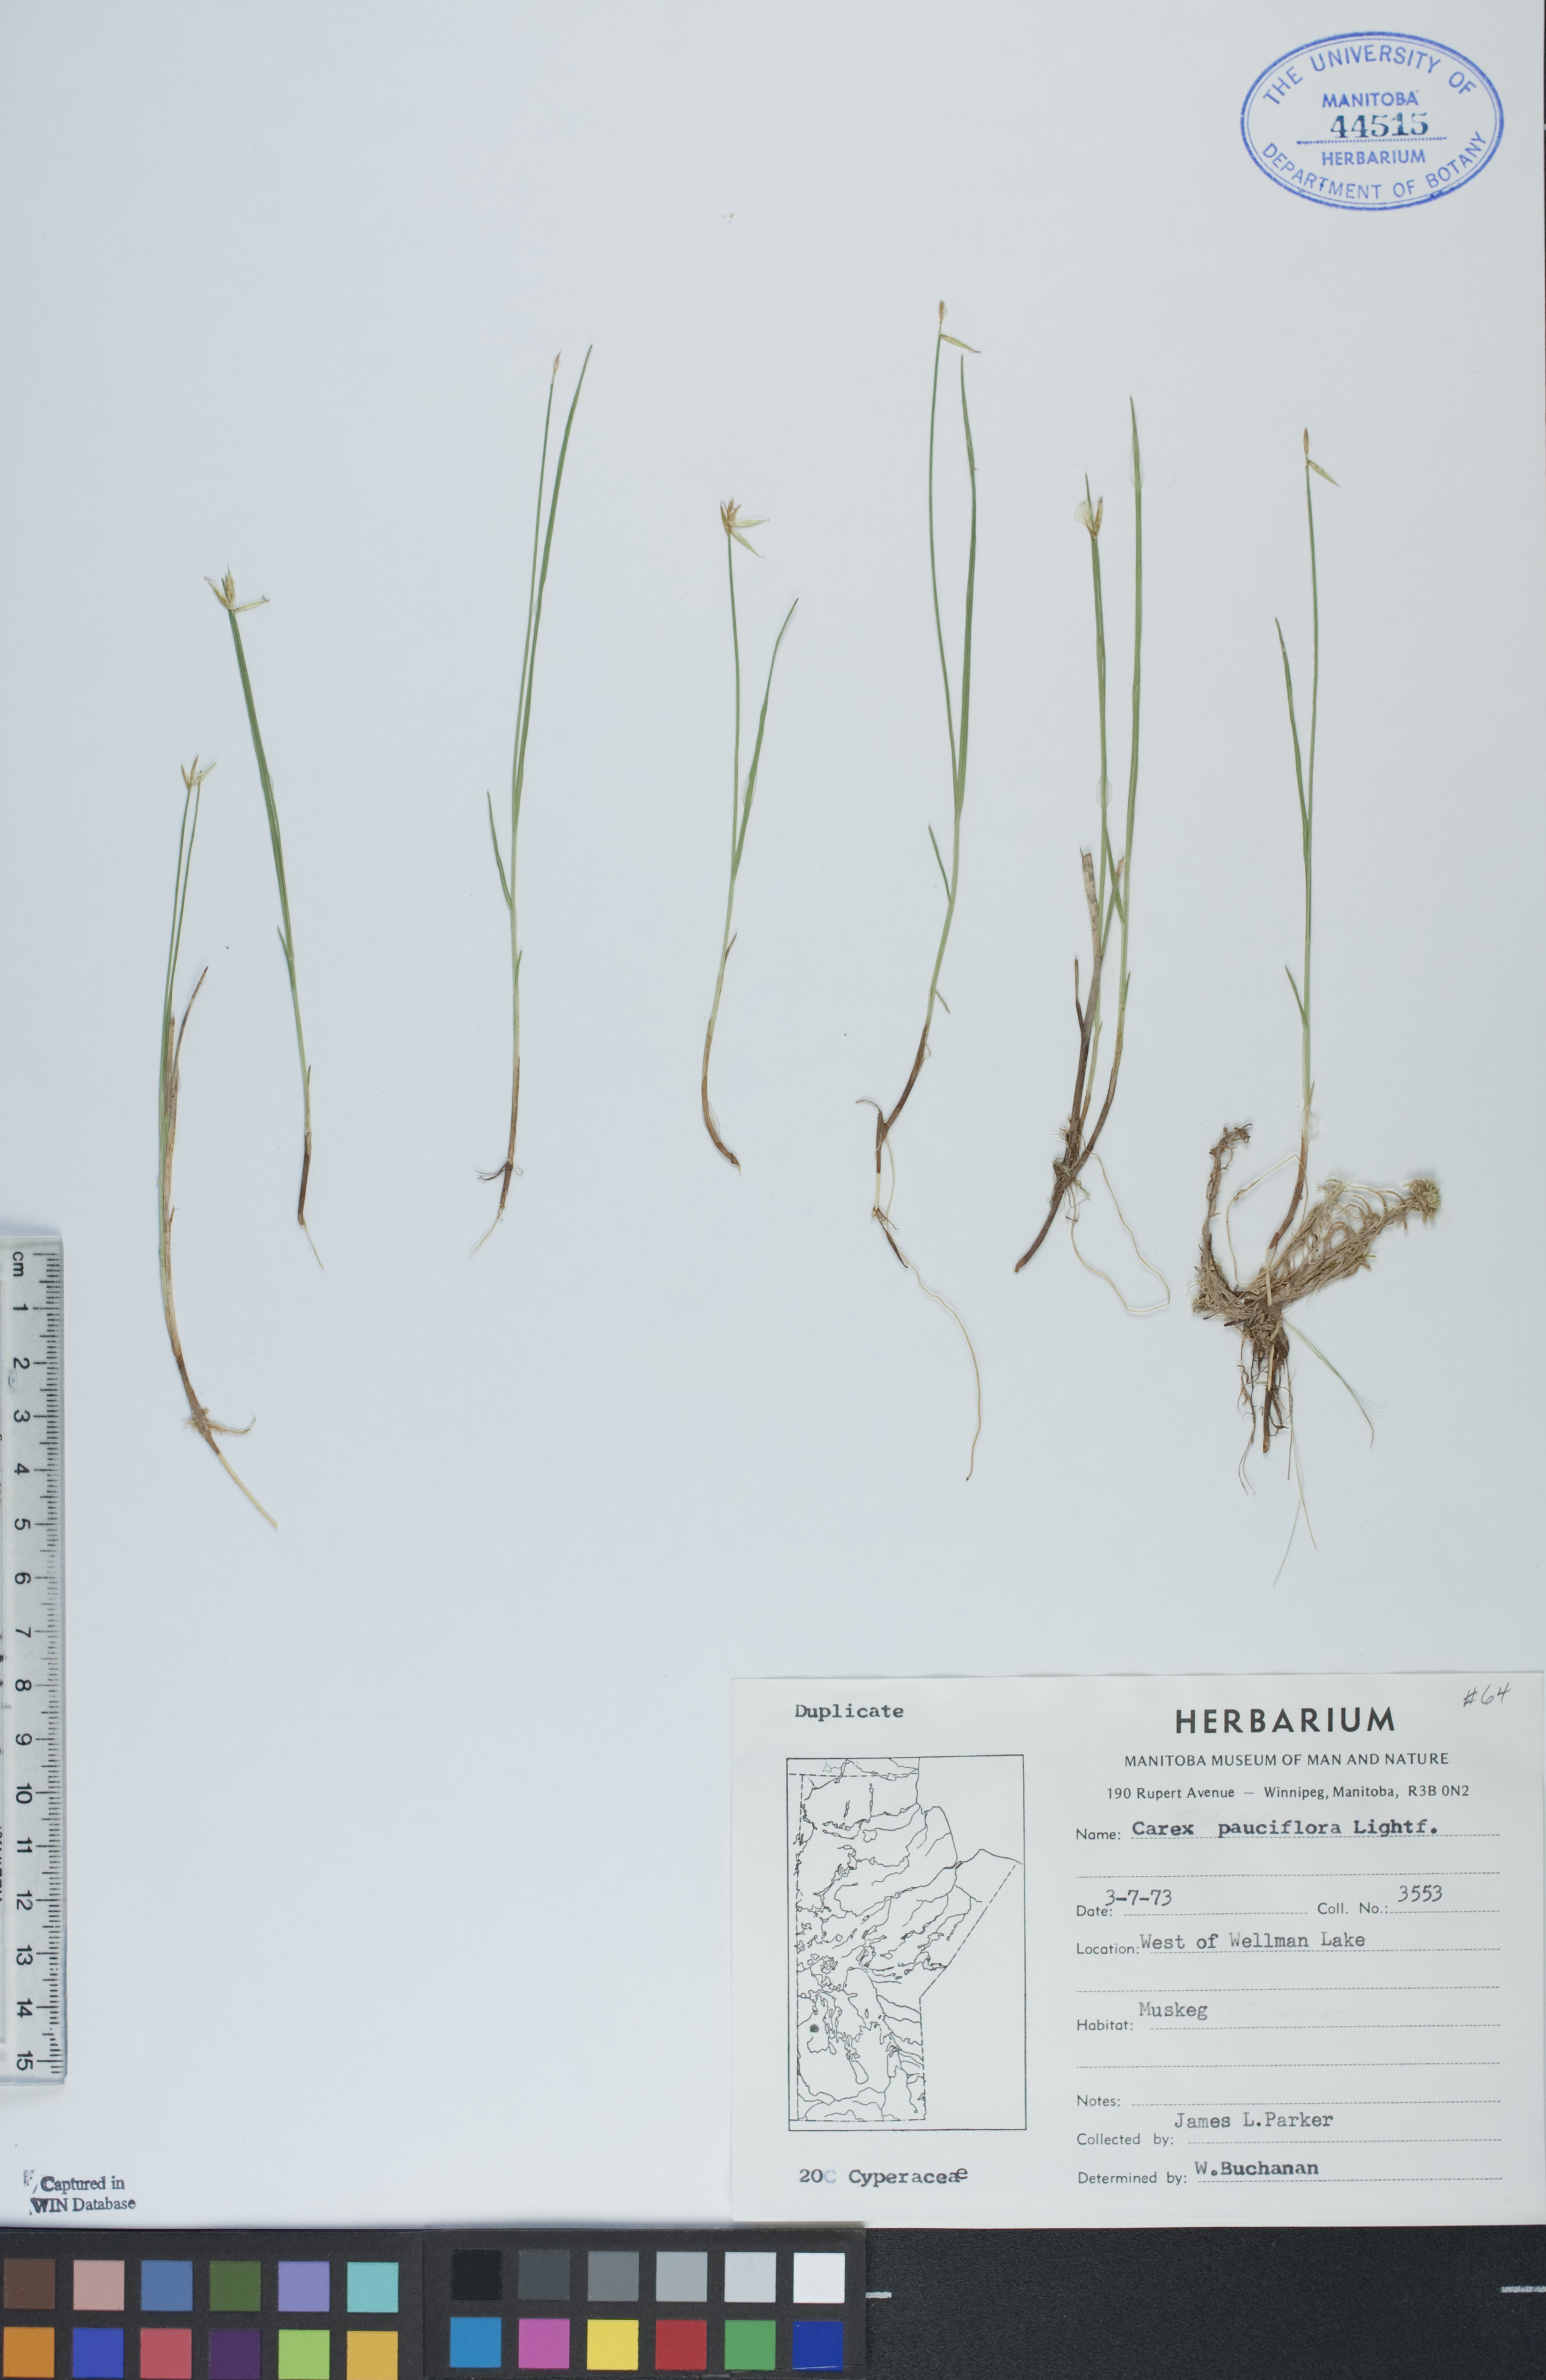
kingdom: Plantae
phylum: Tracheophyta
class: Liliopsida
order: Poales
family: Cyperaceae
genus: Carex
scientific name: Carex pauciflora
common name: Few-flowered sedge
